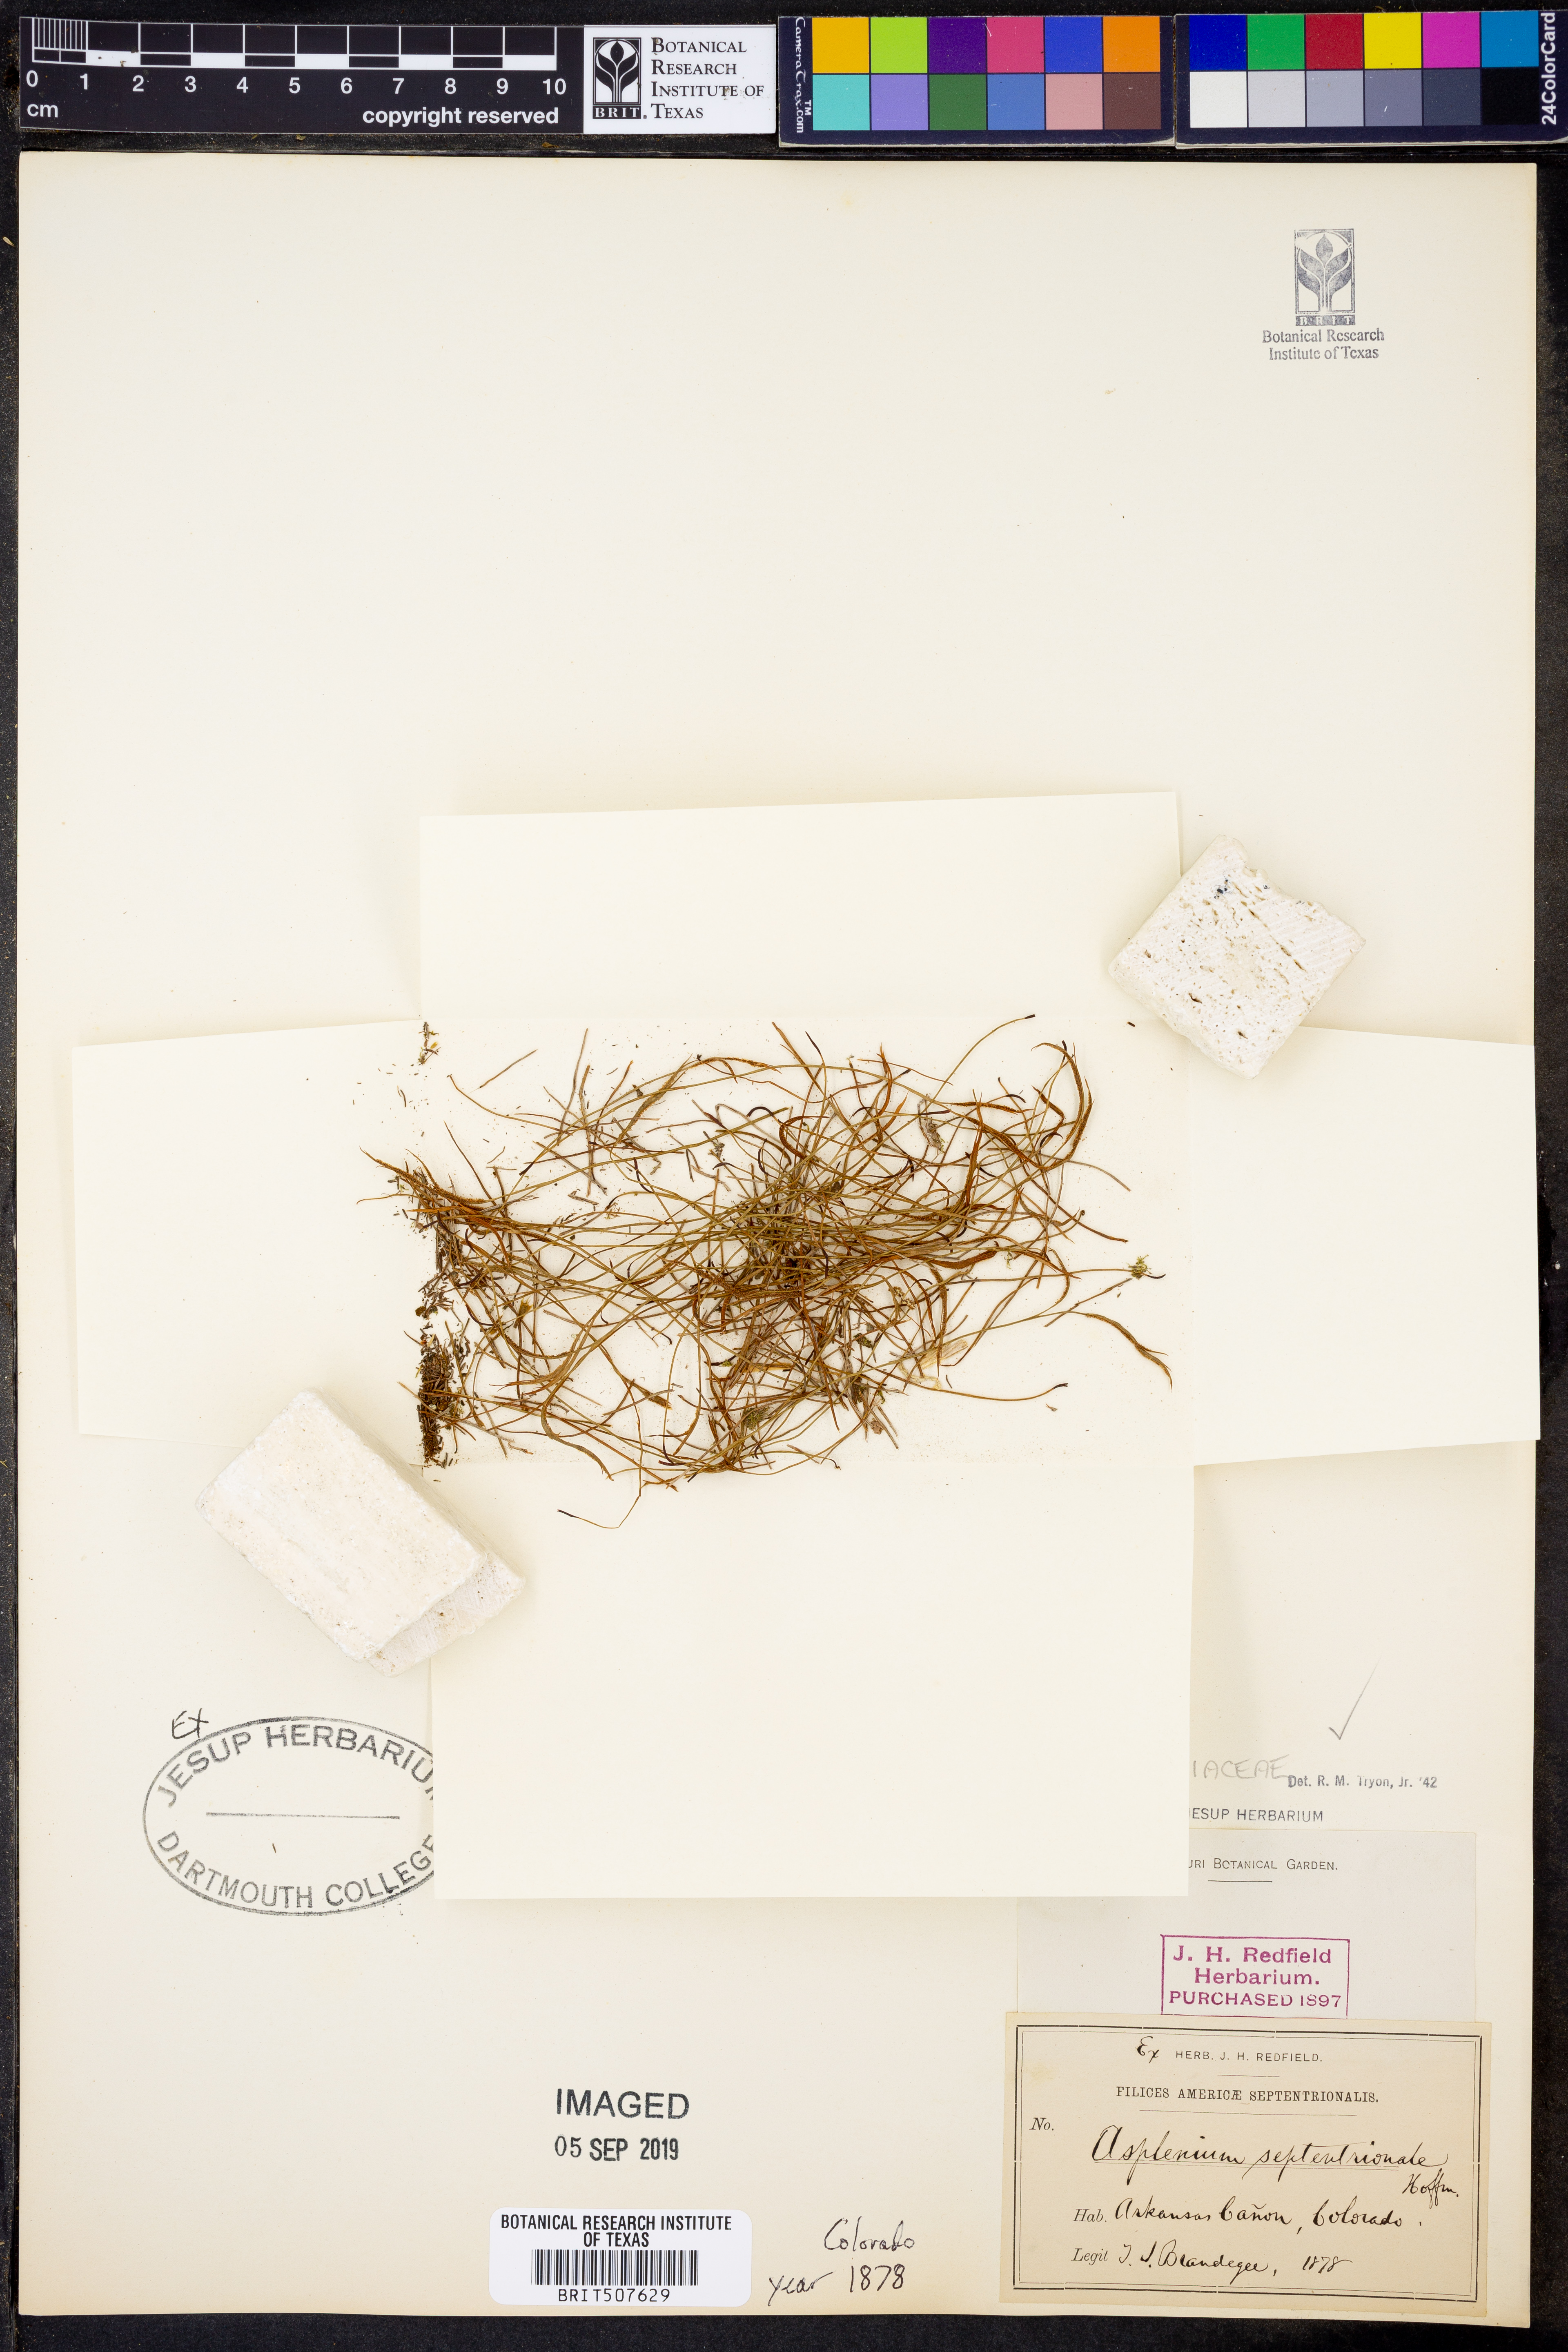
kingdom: Plantae
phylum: Tracheophyta
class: Polypodiopsida
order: Polypodiales
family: Aspleniaceae
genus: Asplenium
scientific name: Asplenium septentrionale
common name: Forked spleenwort
